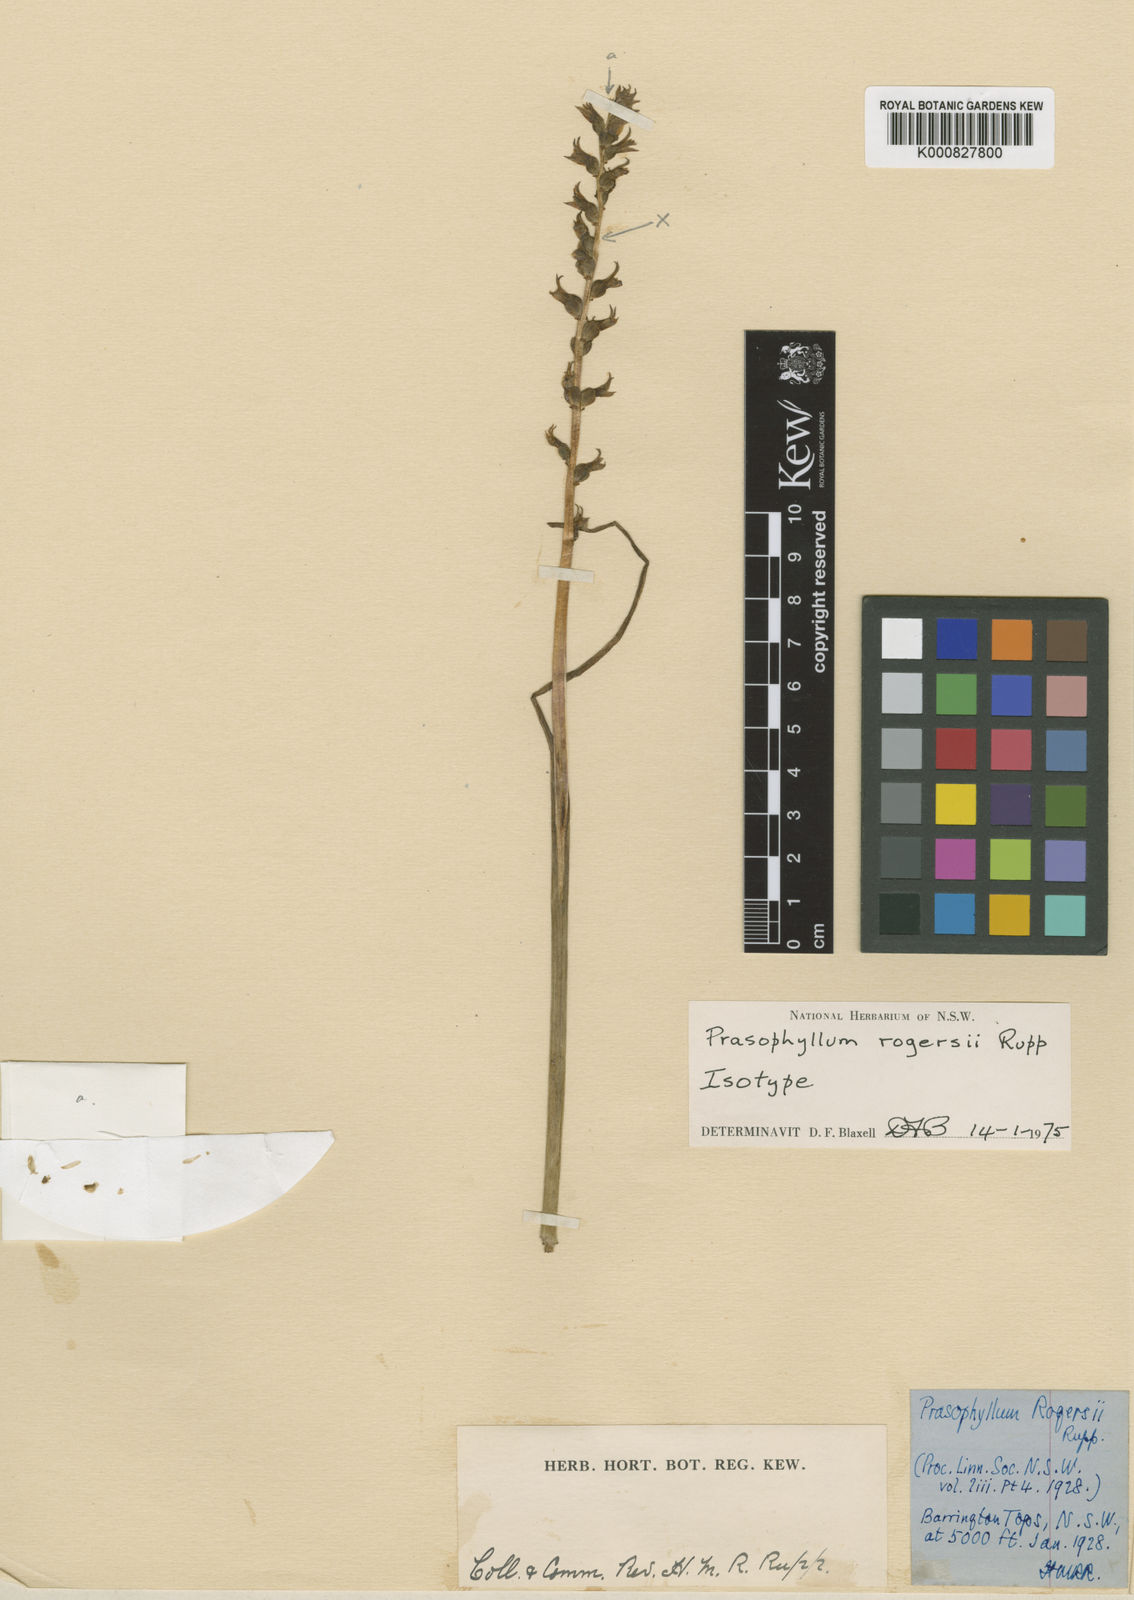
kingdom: Plantae
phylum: Tracheophyta
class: Liliopsida
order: Asparagales
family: Orchidaceae
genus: Prasophyllum
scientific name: Prasophyllum rogersii
